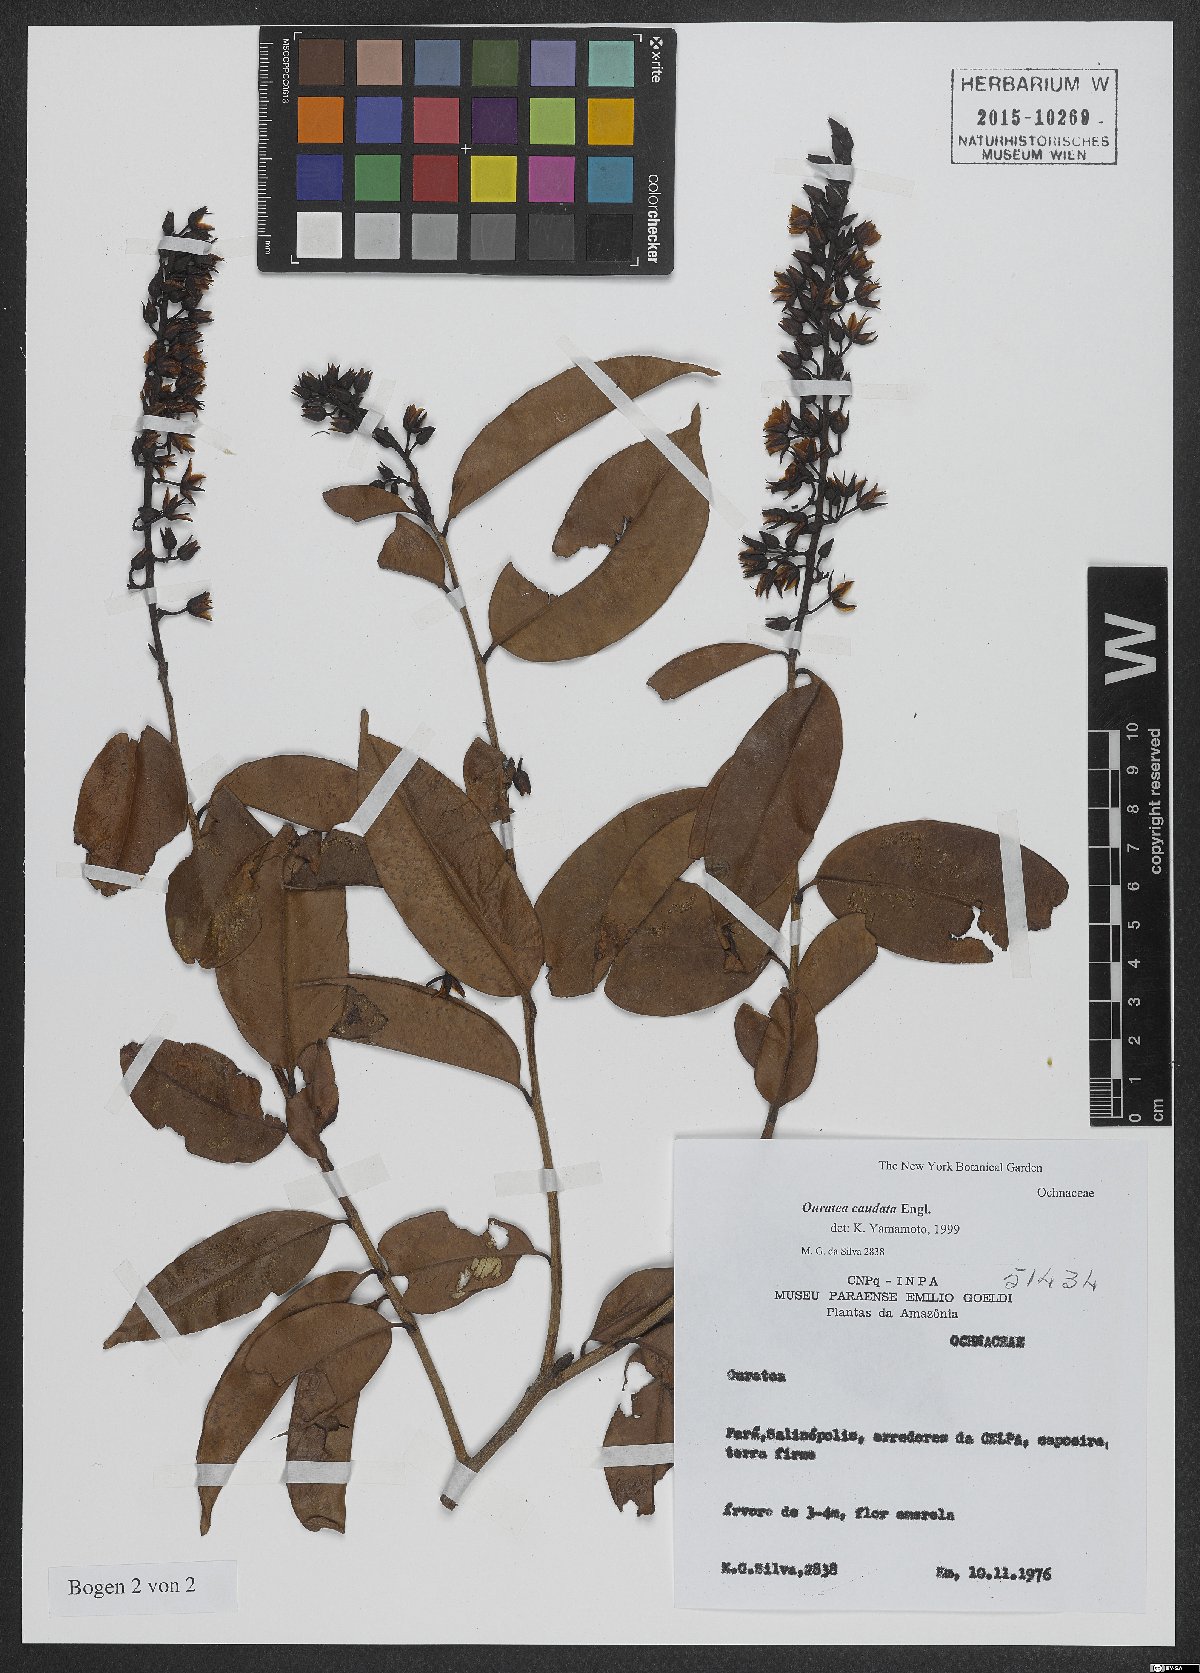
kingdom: Plantae
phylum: Tracheophyta
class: Magnoliopsida
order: Malpighiales
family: Ochnaceae
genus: Ouratea
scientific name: Ouratea caudata
